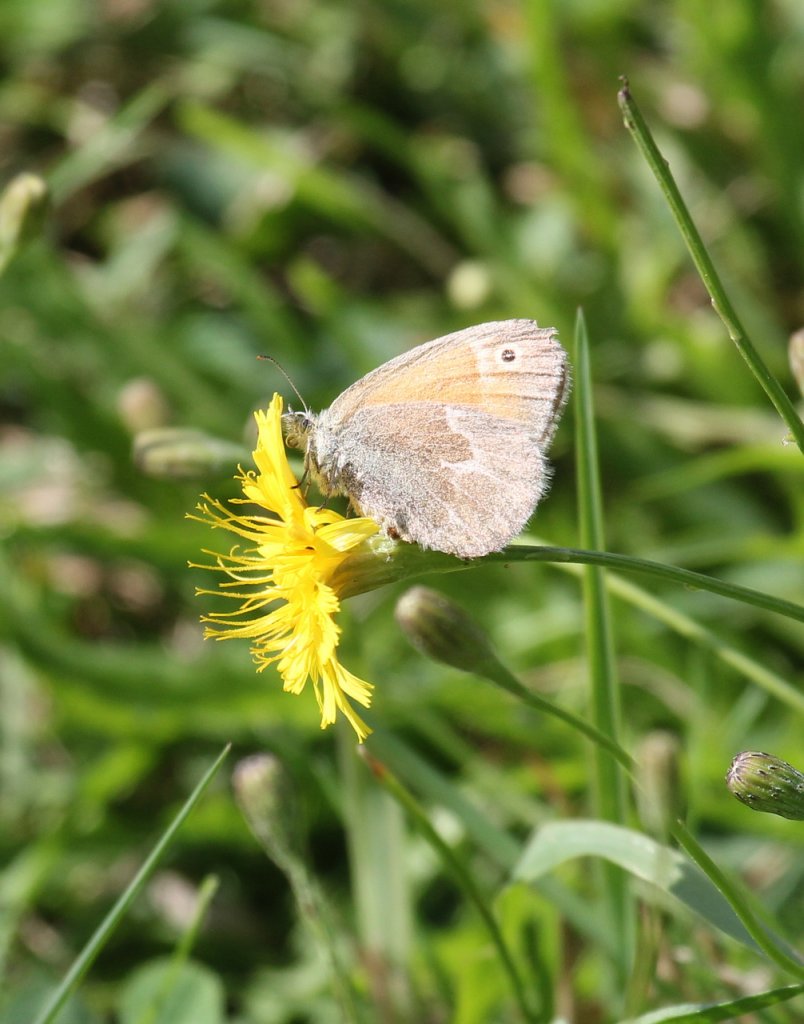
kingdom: Animalia
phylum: Arthropoda
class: Insecta
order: Lepidoptera
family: Nymphalidae
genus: Coenonympha
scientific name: Coenonympha tullia
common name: Large Heath
